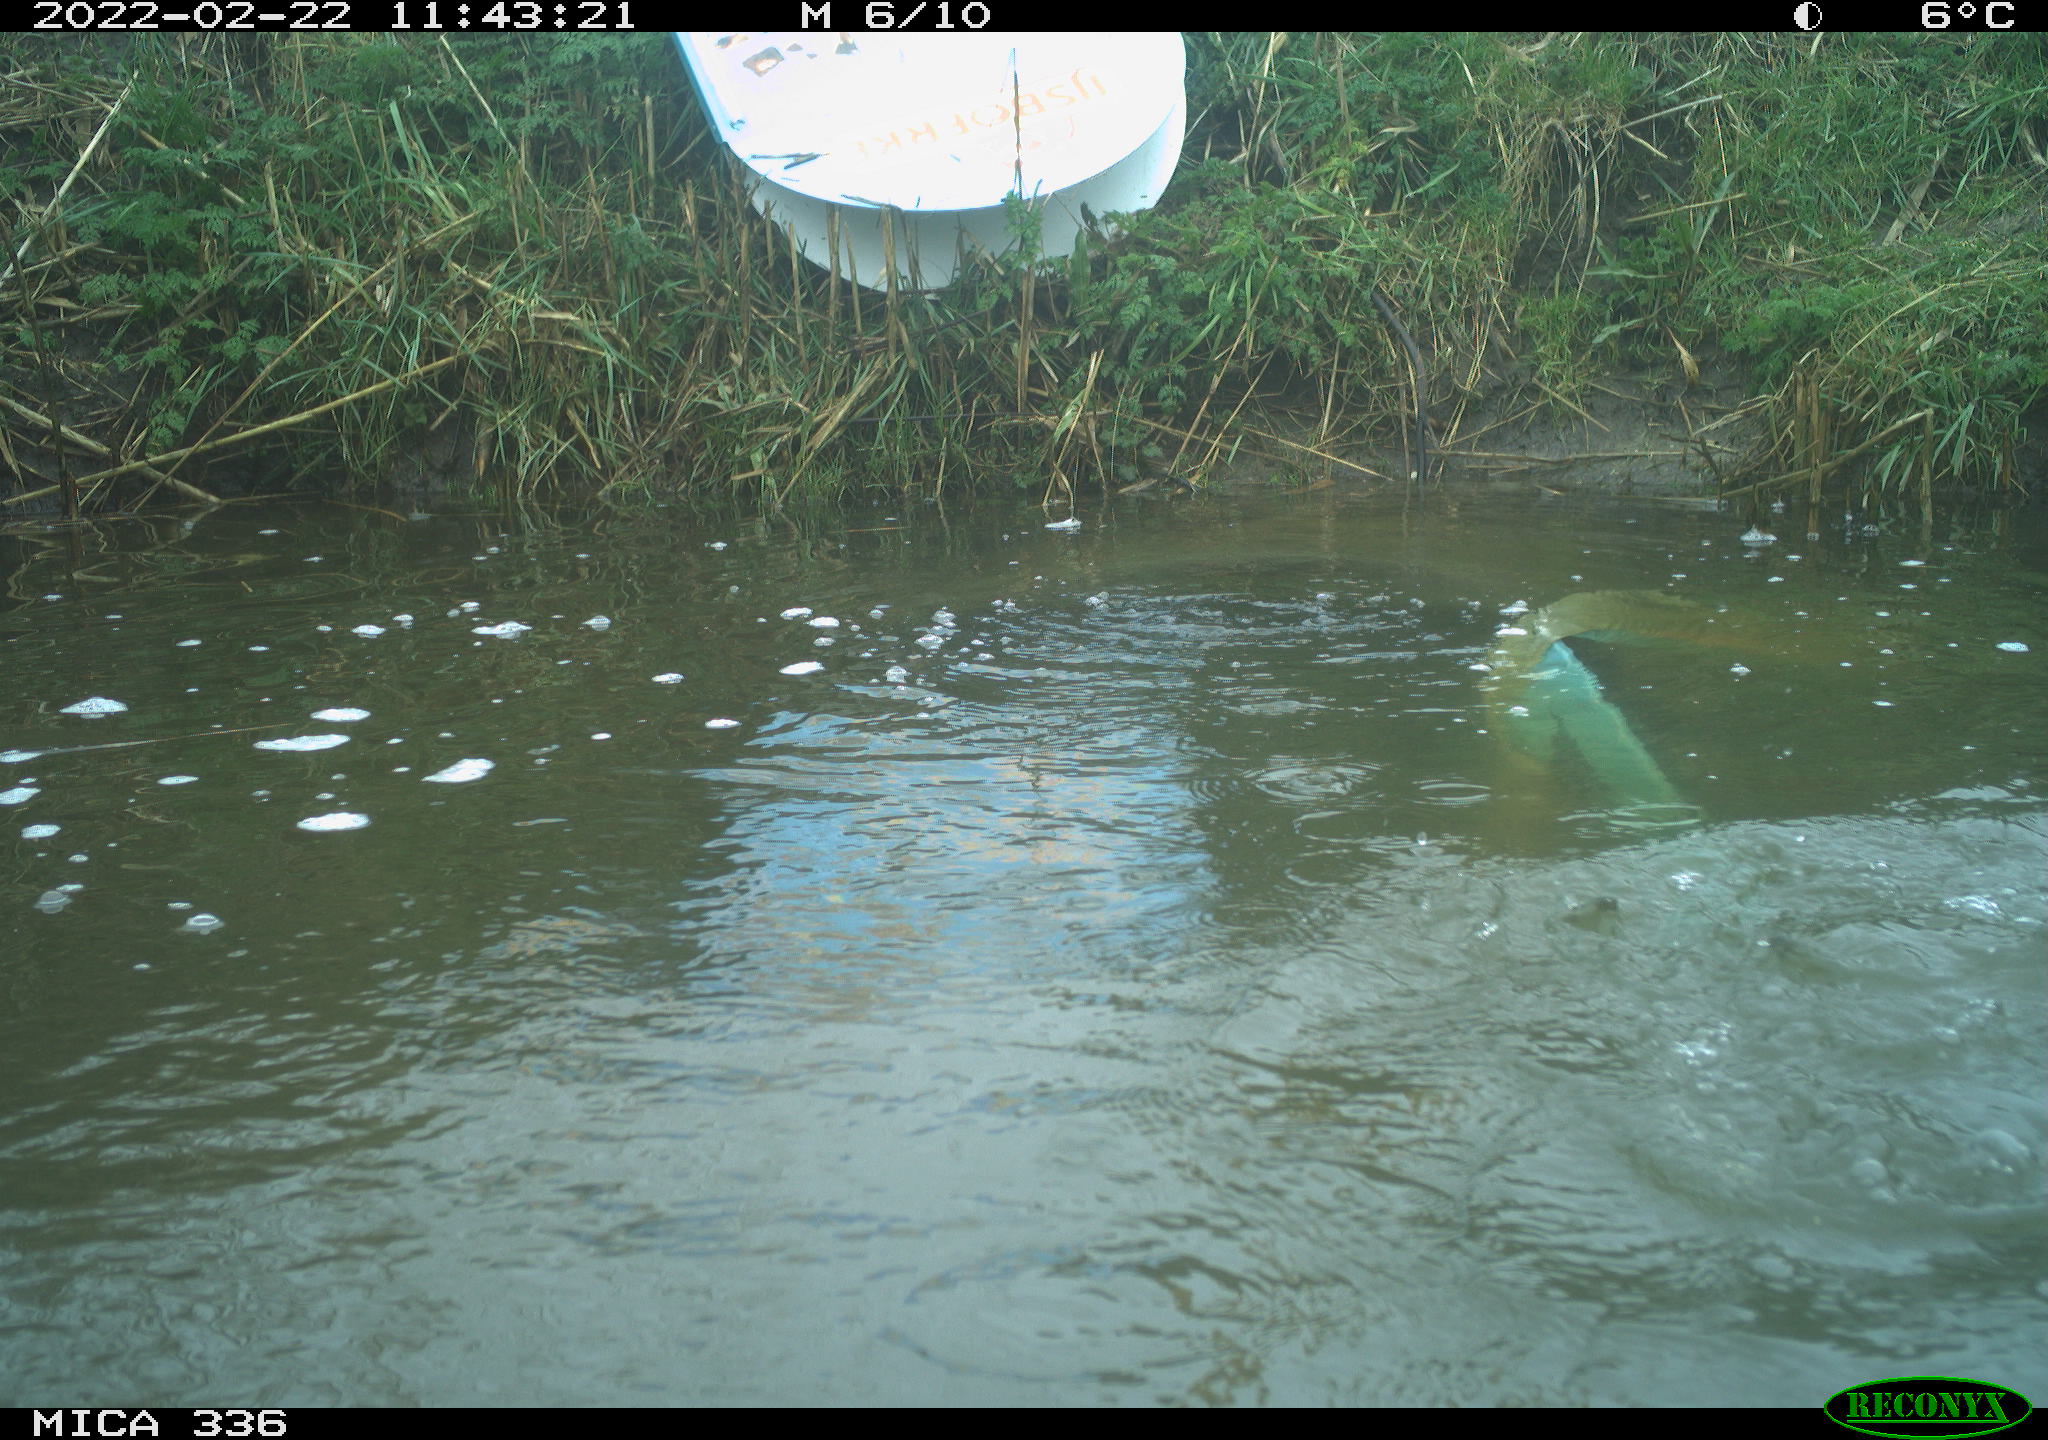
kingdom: Animalia
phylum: Chordata
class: Aves
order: Podicipediformes
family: Podicipedidae
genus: Podiceps
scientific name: Podiceps cristatus
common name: Great crested grebe
